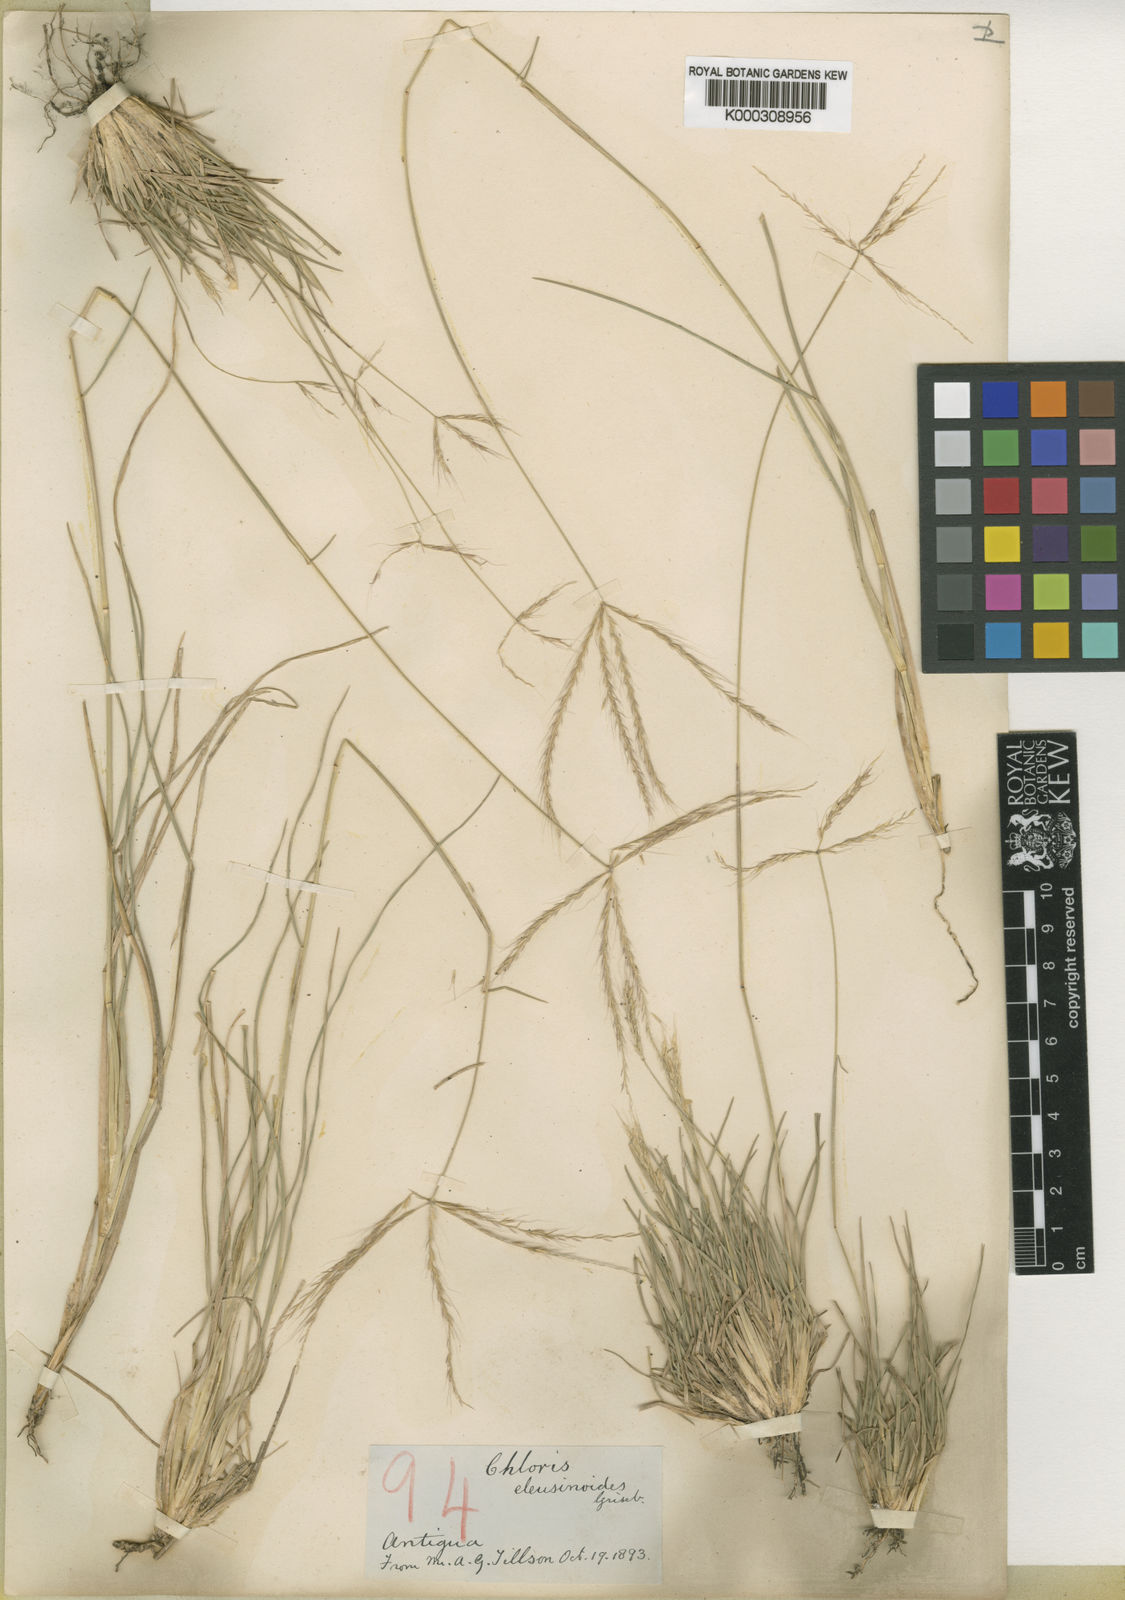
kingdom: Plantae
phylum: Tracheophyta
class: Liliopsida
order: Poales
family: Poaceae
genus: Chloris
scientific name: Chloris
